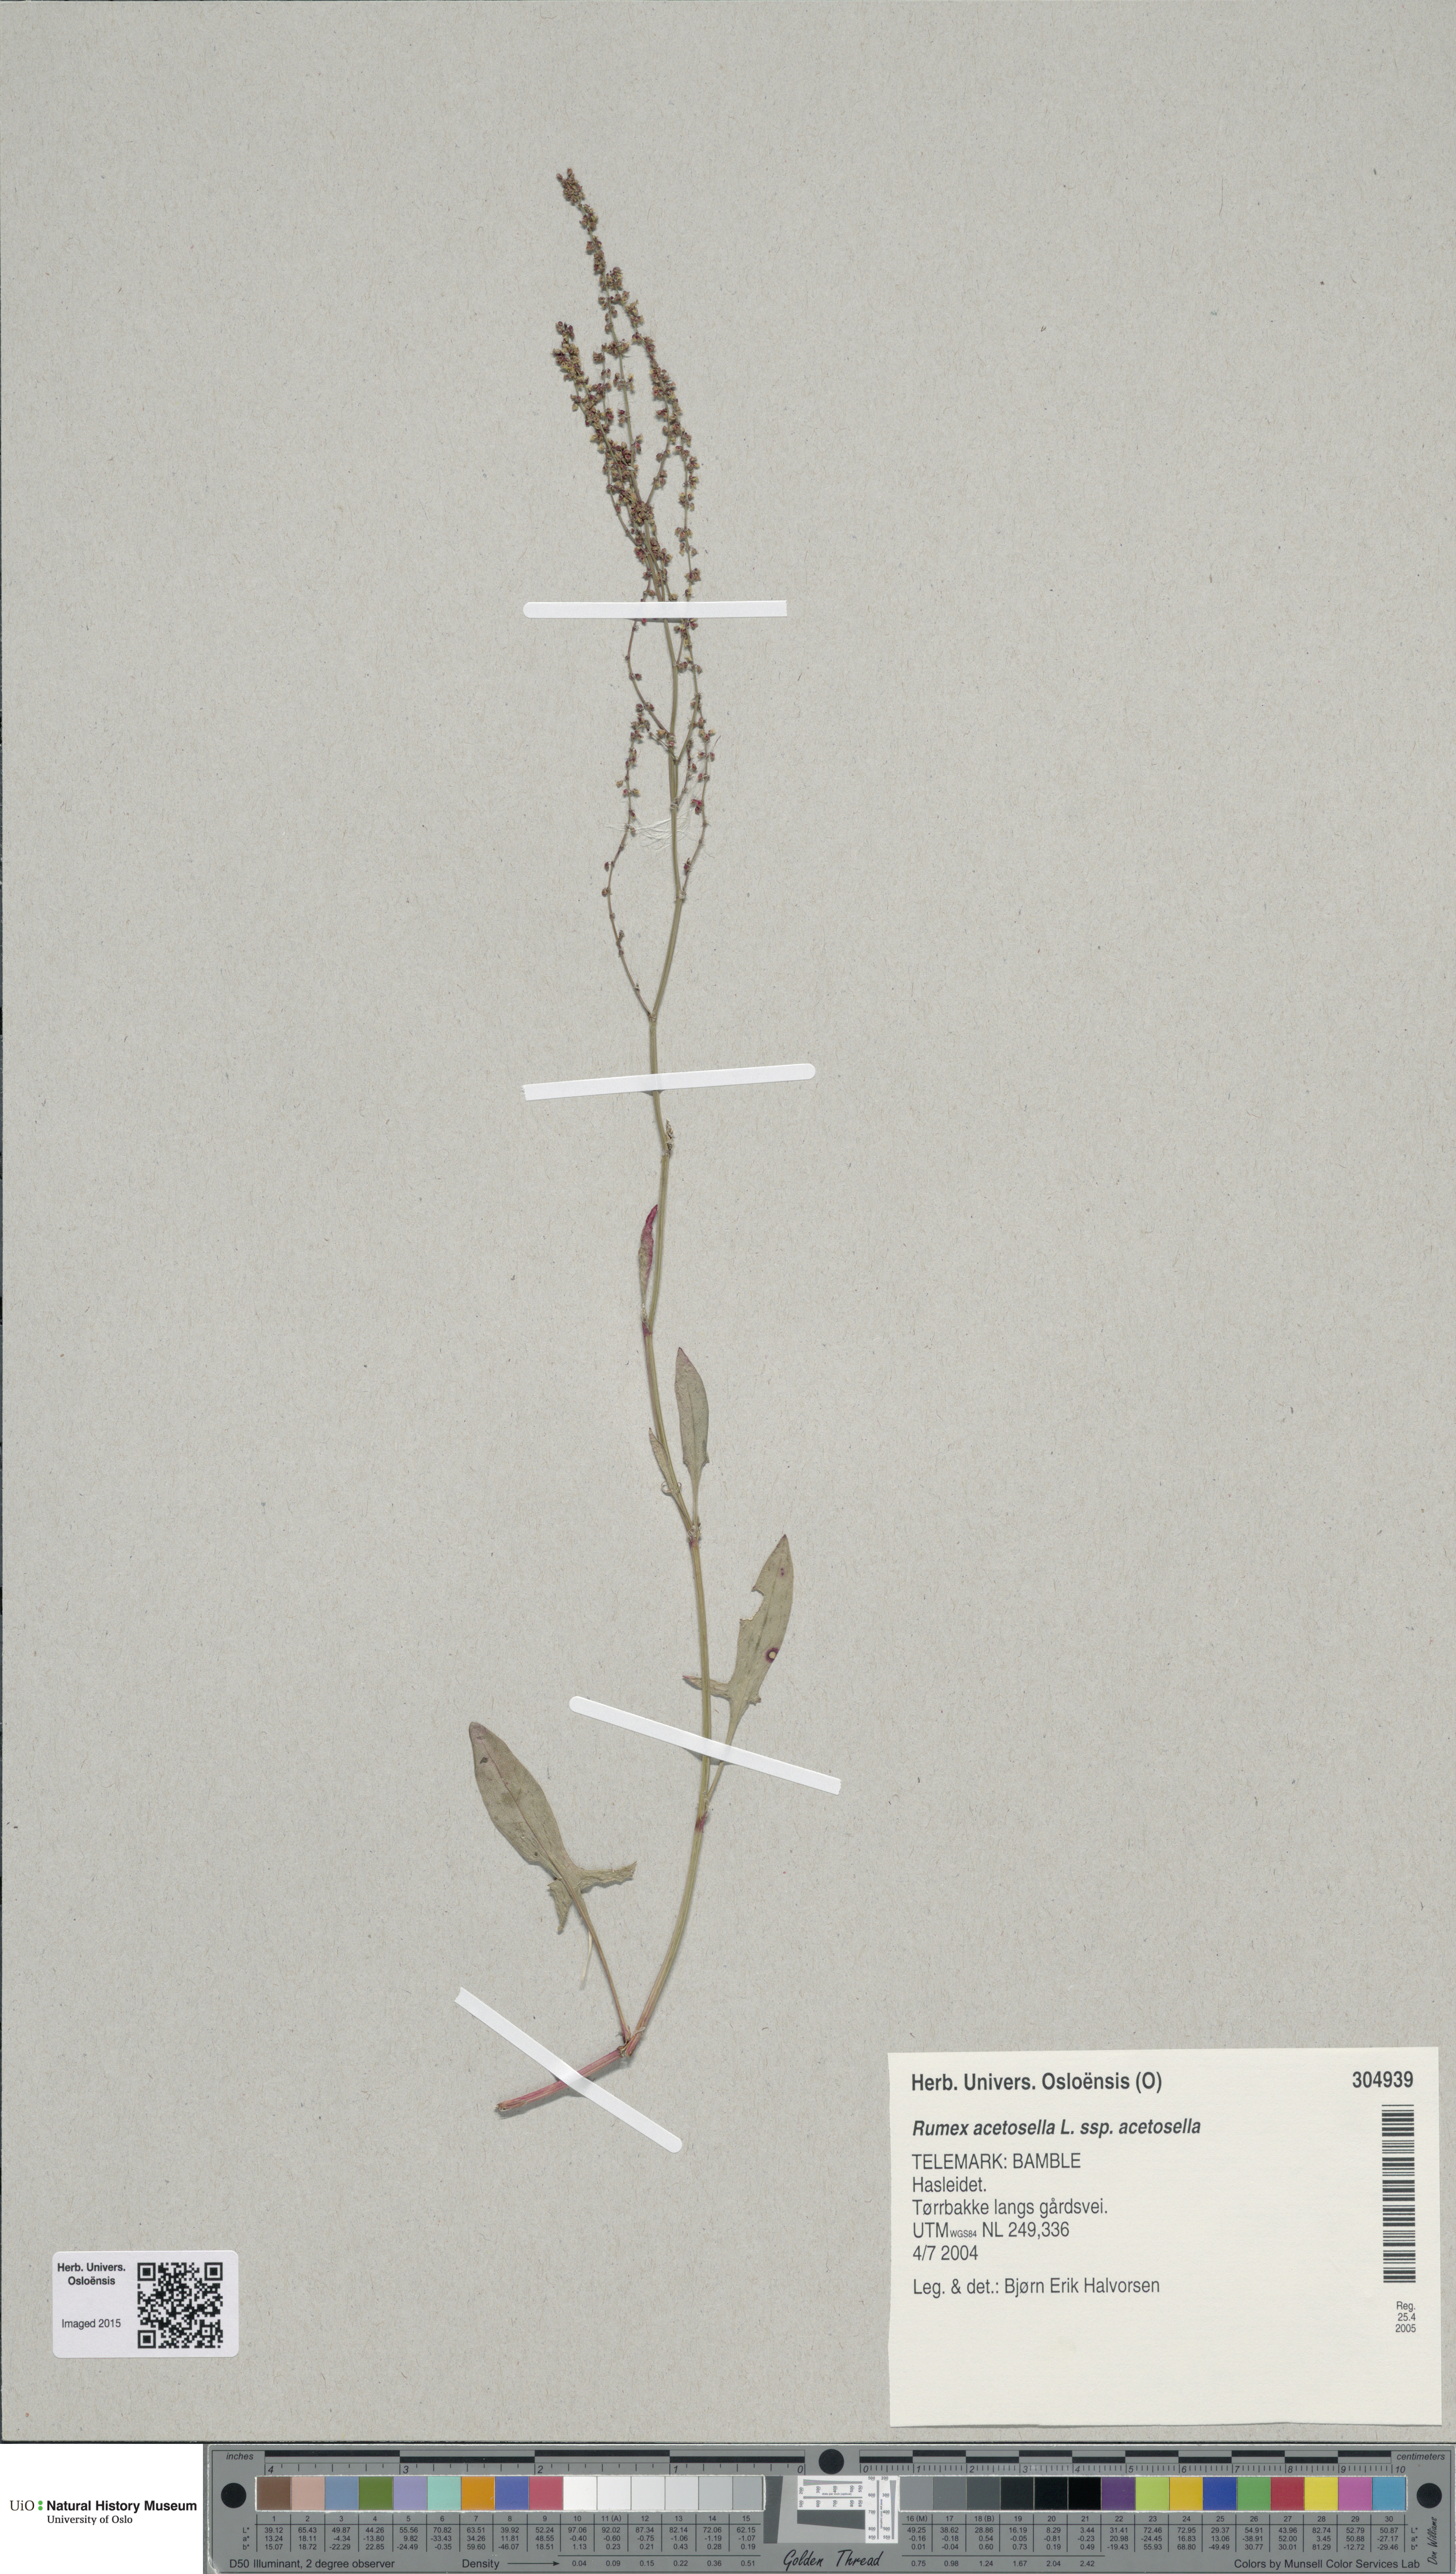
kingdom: Plantae
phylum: Tracheophyta
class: Magnoliopsida
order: Caryophyllales
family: Polygonaceae
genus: Rumex
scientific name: Rumex acetosella
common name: Common sheep sorrel
